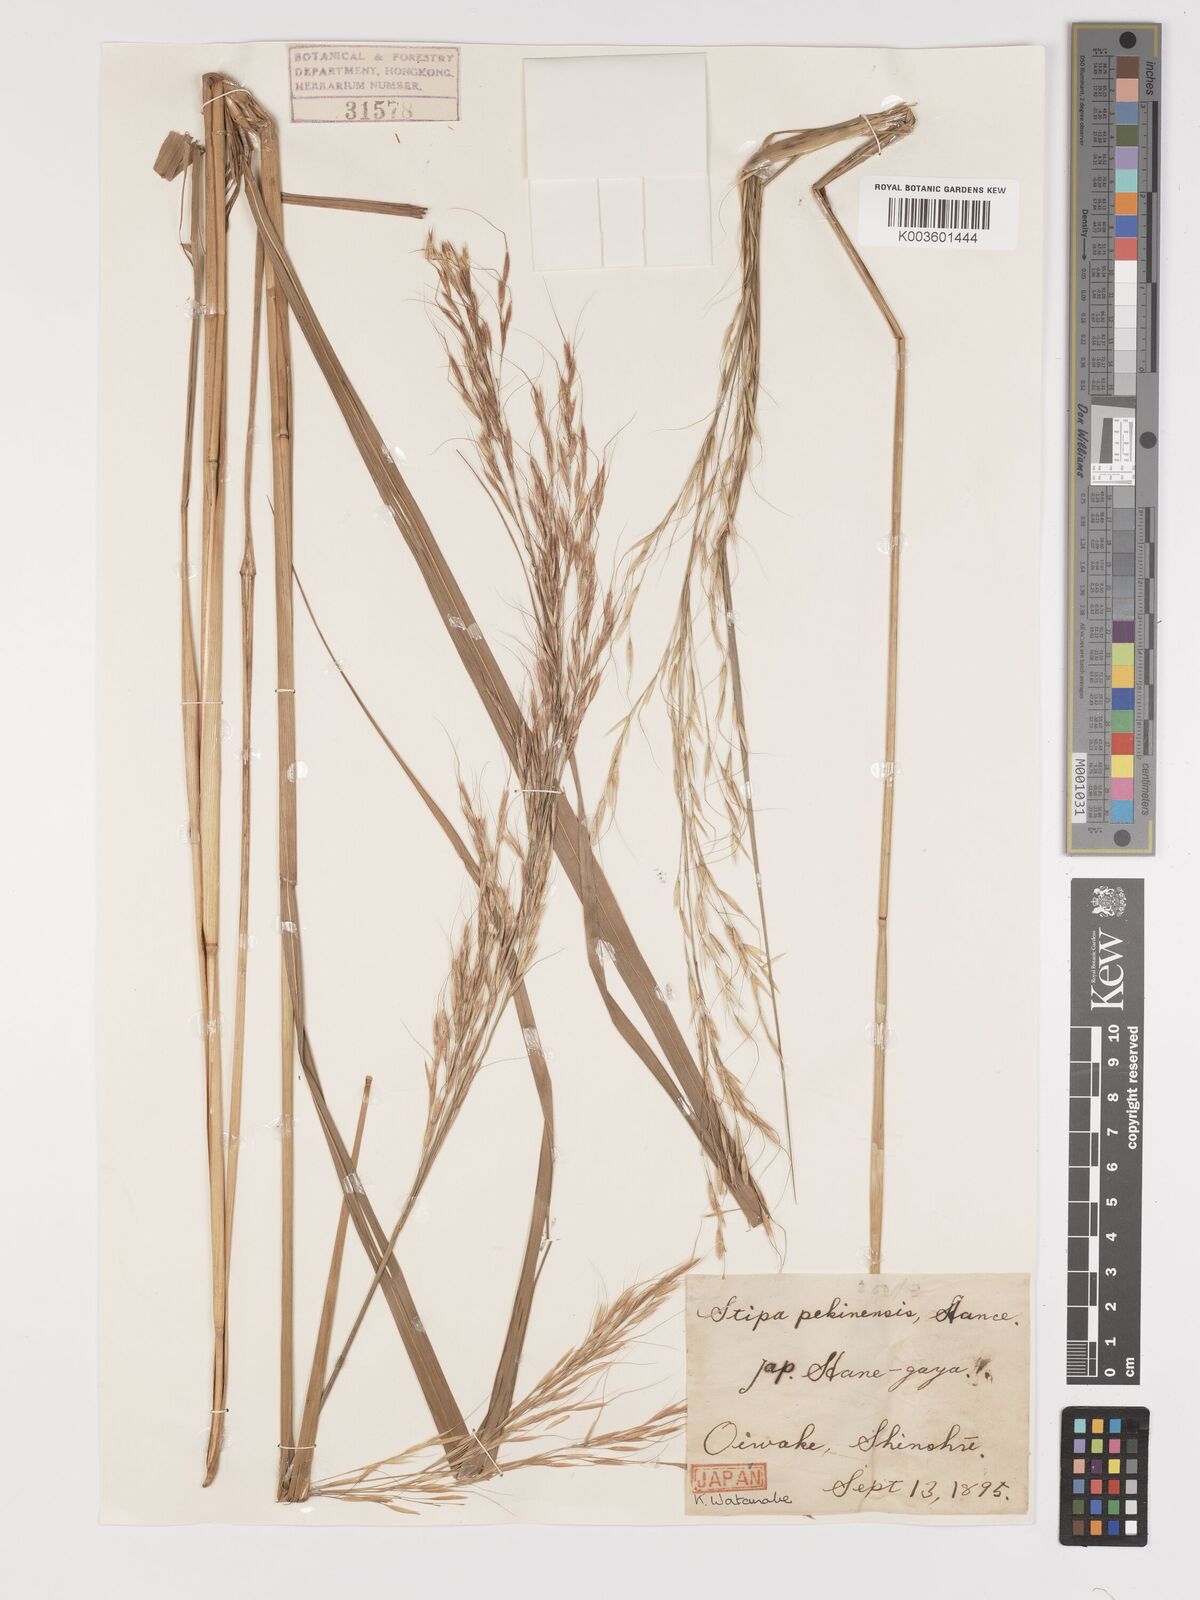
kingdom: Plantae
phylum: Tracheophyta
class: Liliopsida
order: Poales
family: Poaceae
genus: Achnatherum
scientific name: Achnatherum pekinense
